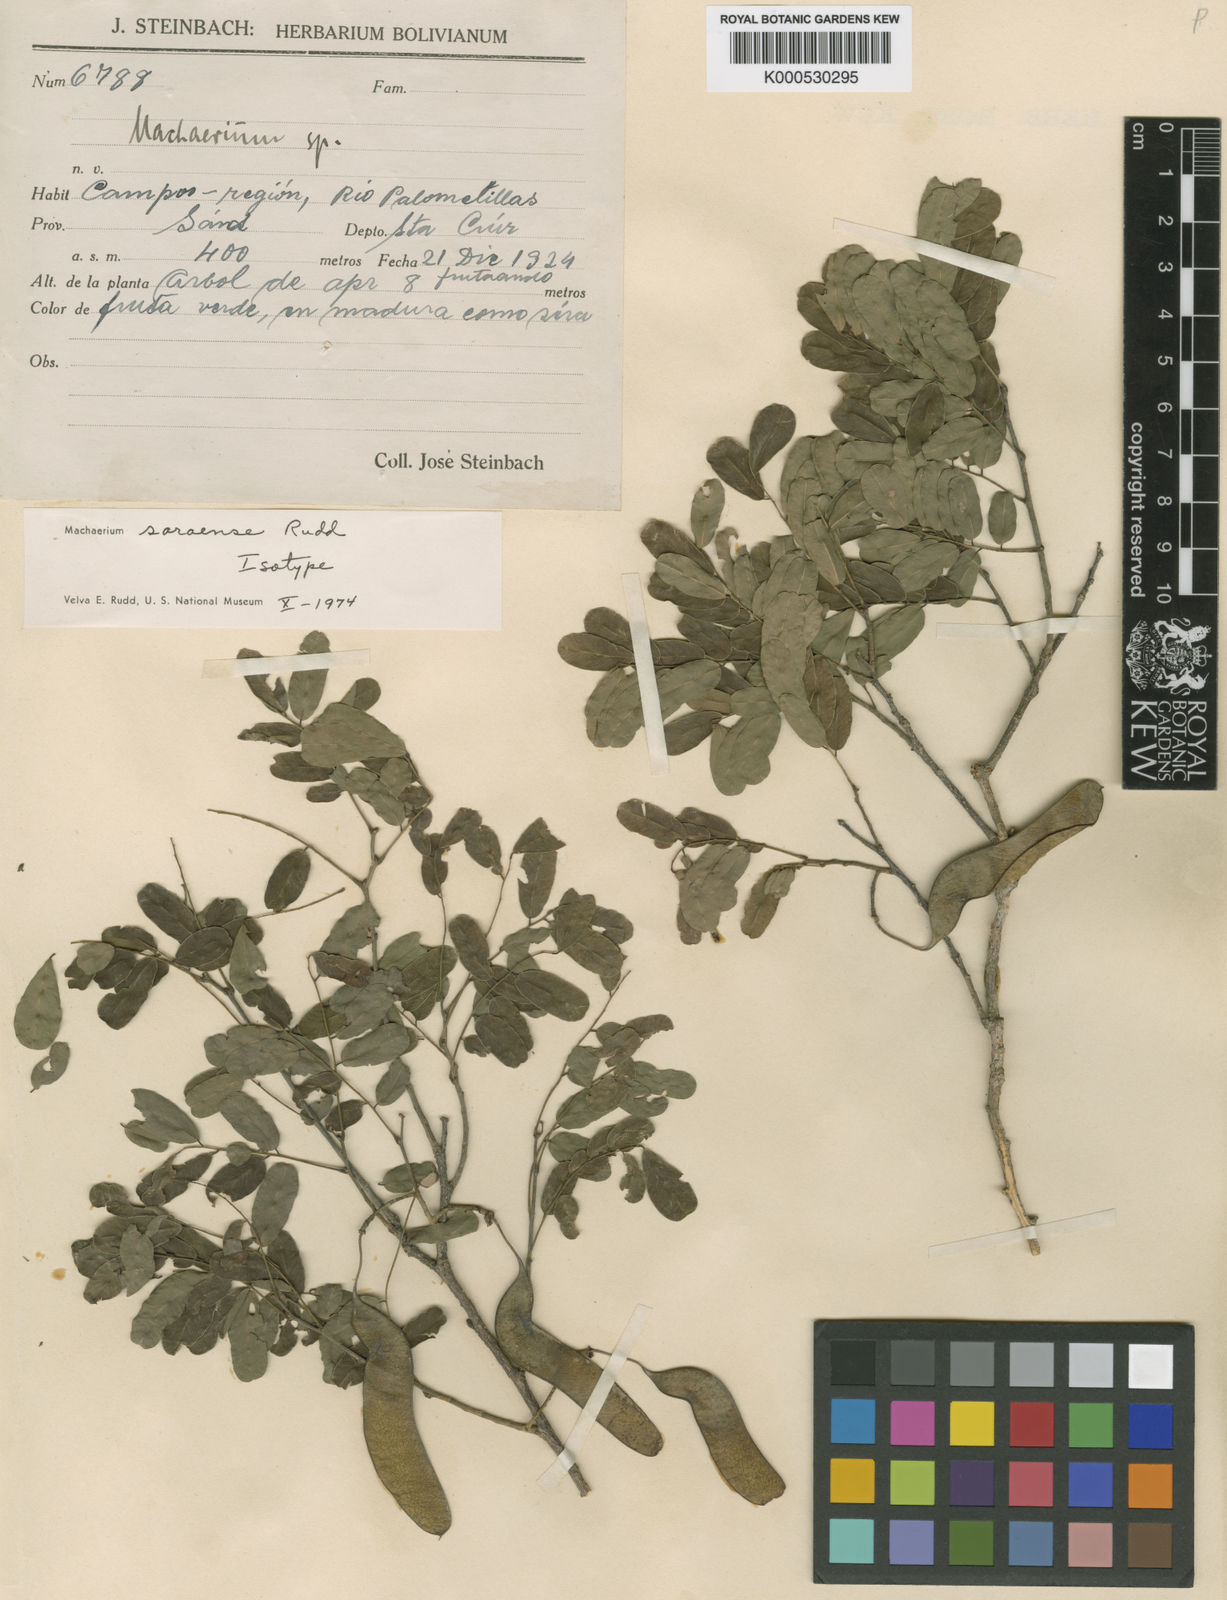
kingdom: Plantae
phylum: Tracheophyta
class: Magnoliopsida
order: Fabales
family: Fabaceae
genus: Steinbachiella
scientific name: Steinbachiella leptoclada
